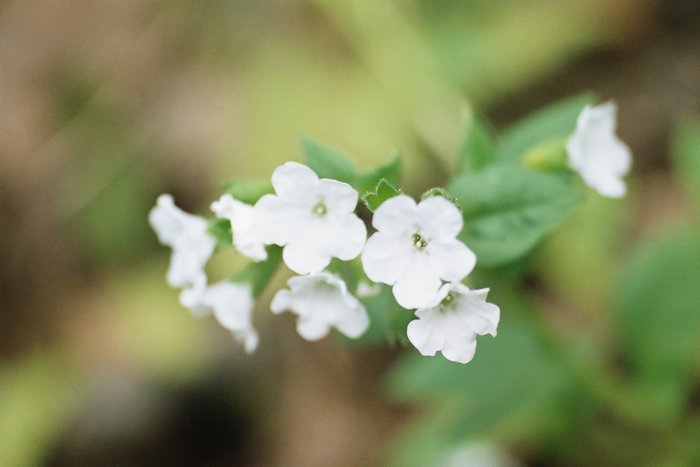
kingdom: Plantae
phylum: Tracheophyta
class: Magnoliopsida
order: Boraginales
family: Boraginaceae
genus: Pulmonaria
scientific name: Pulmonaria obscura
